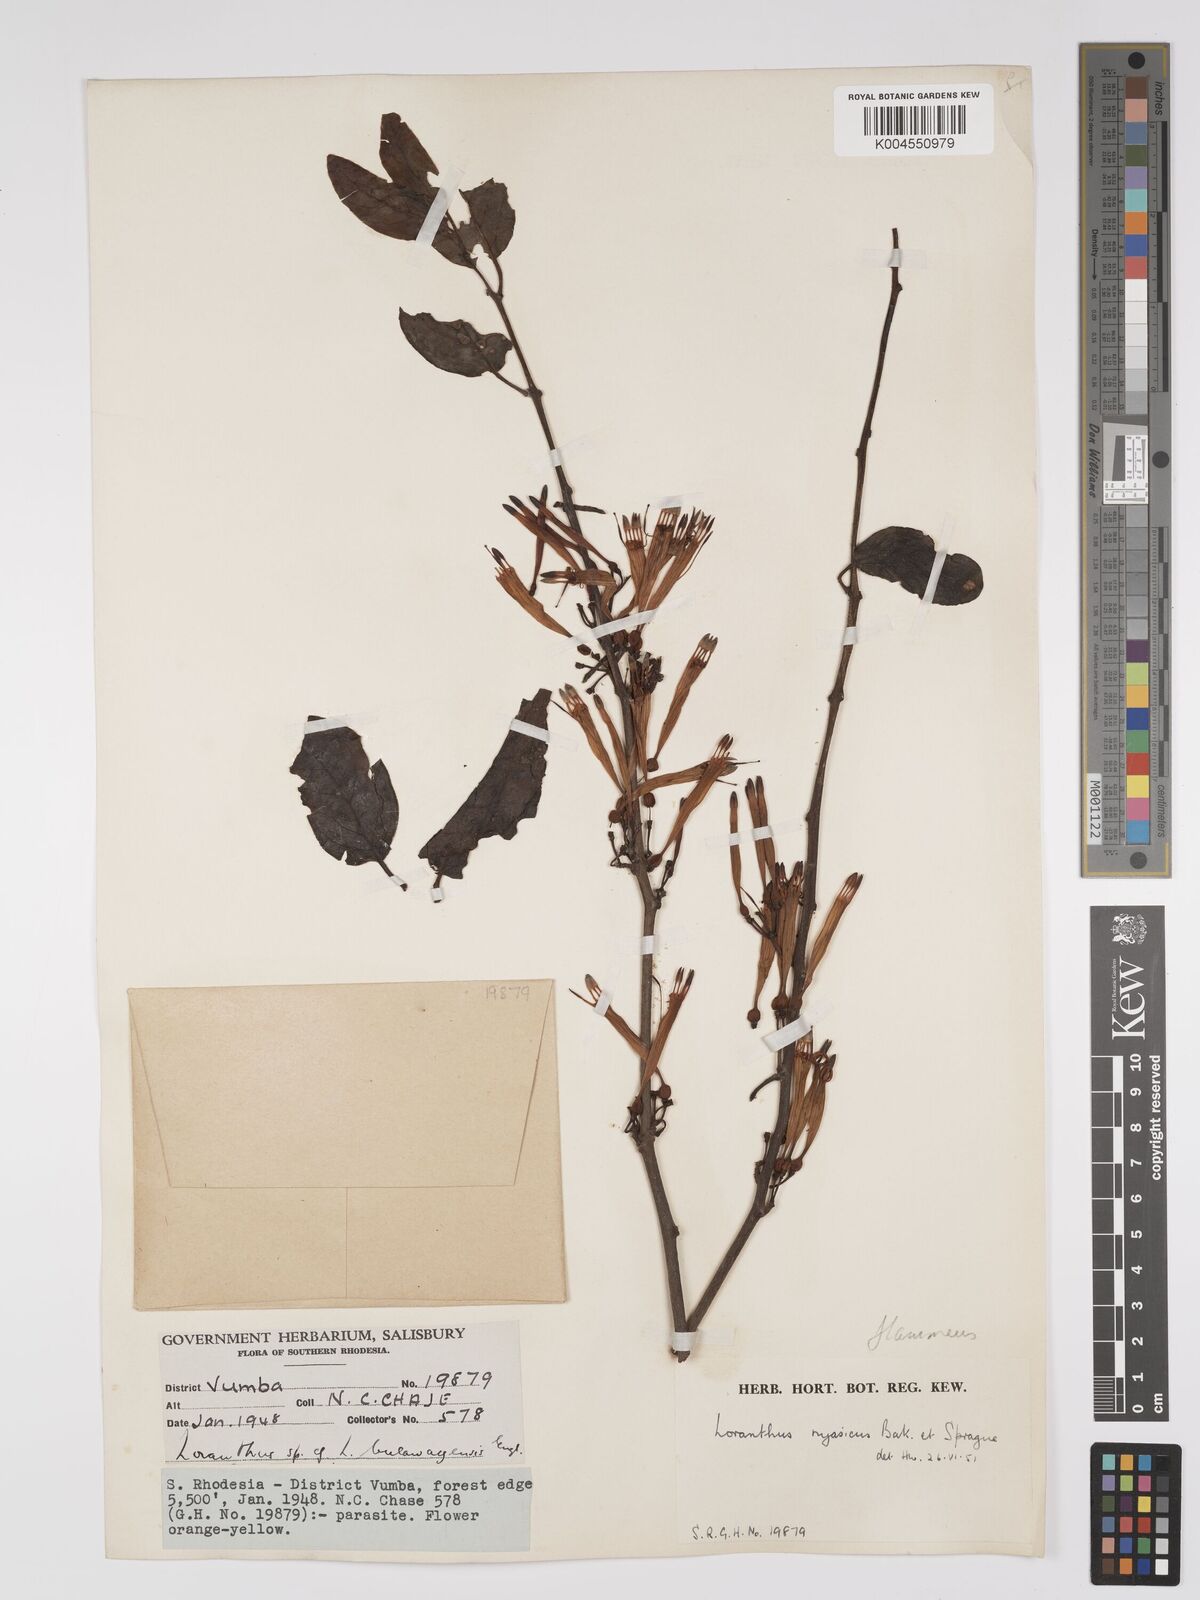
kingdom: Plantae
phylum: Tracheophyta
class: Magnoliopsida
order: Santalales
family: Loranthaceae
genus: Agelanthus
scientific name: Agelanthus flammeus
